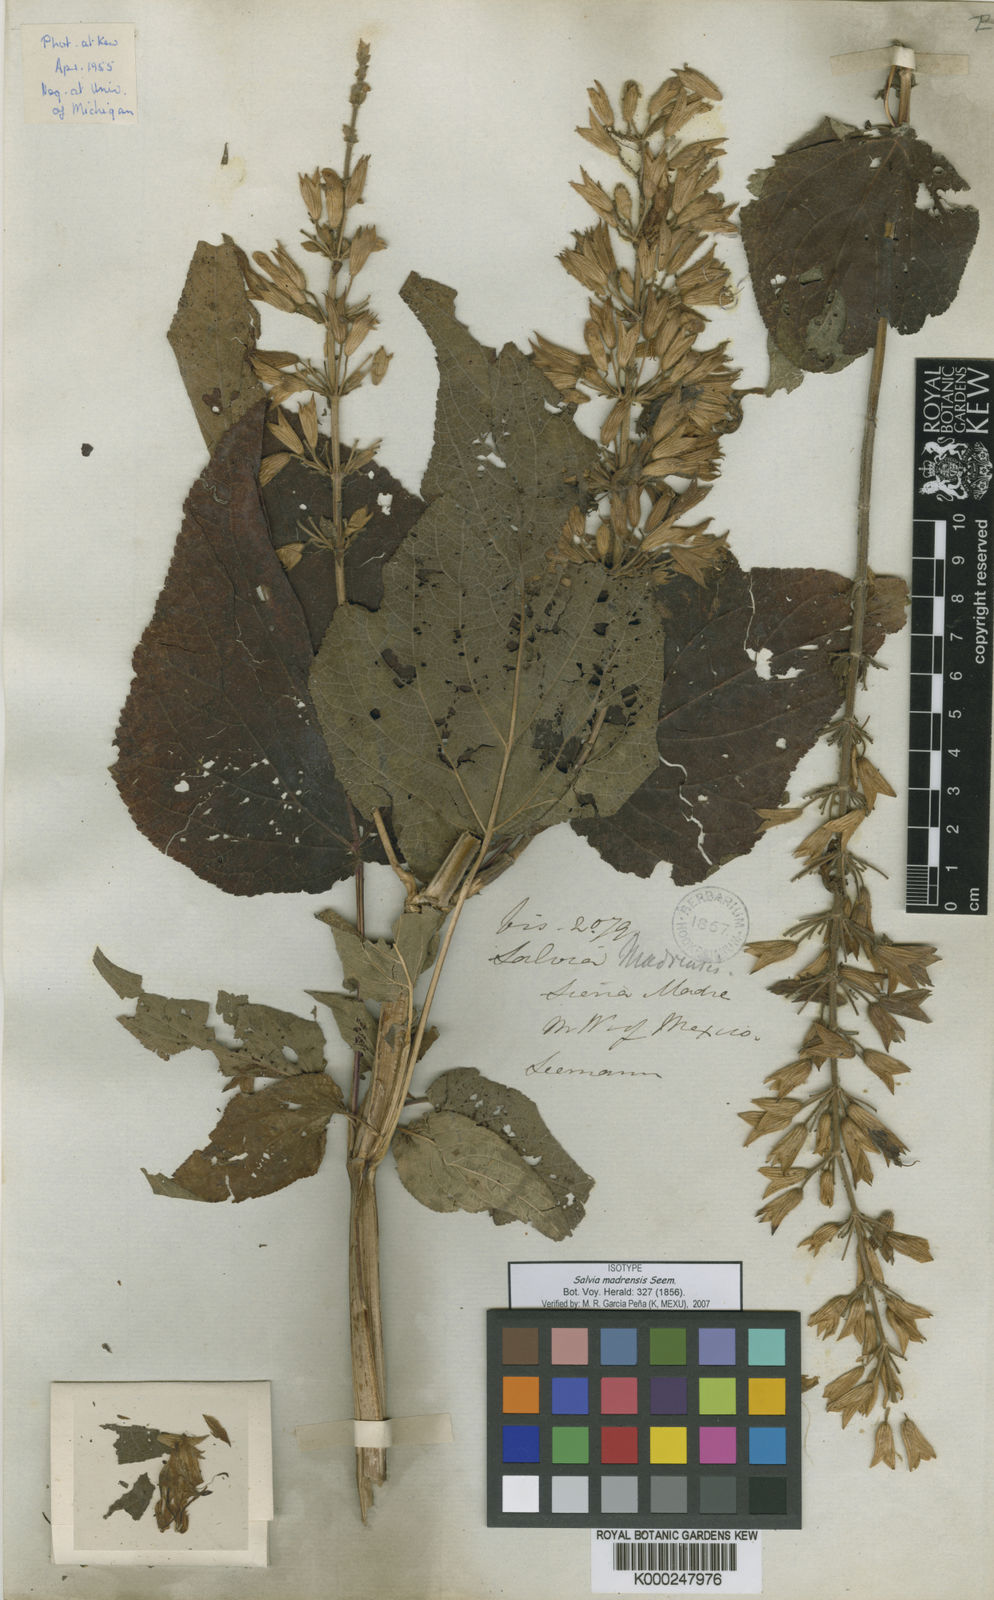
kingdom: Plantae
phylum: Tracheophyta
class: Magnoliopsida
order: Lamiales
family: Lamiaceae
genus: Salvia
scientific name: Salvia madrensis
